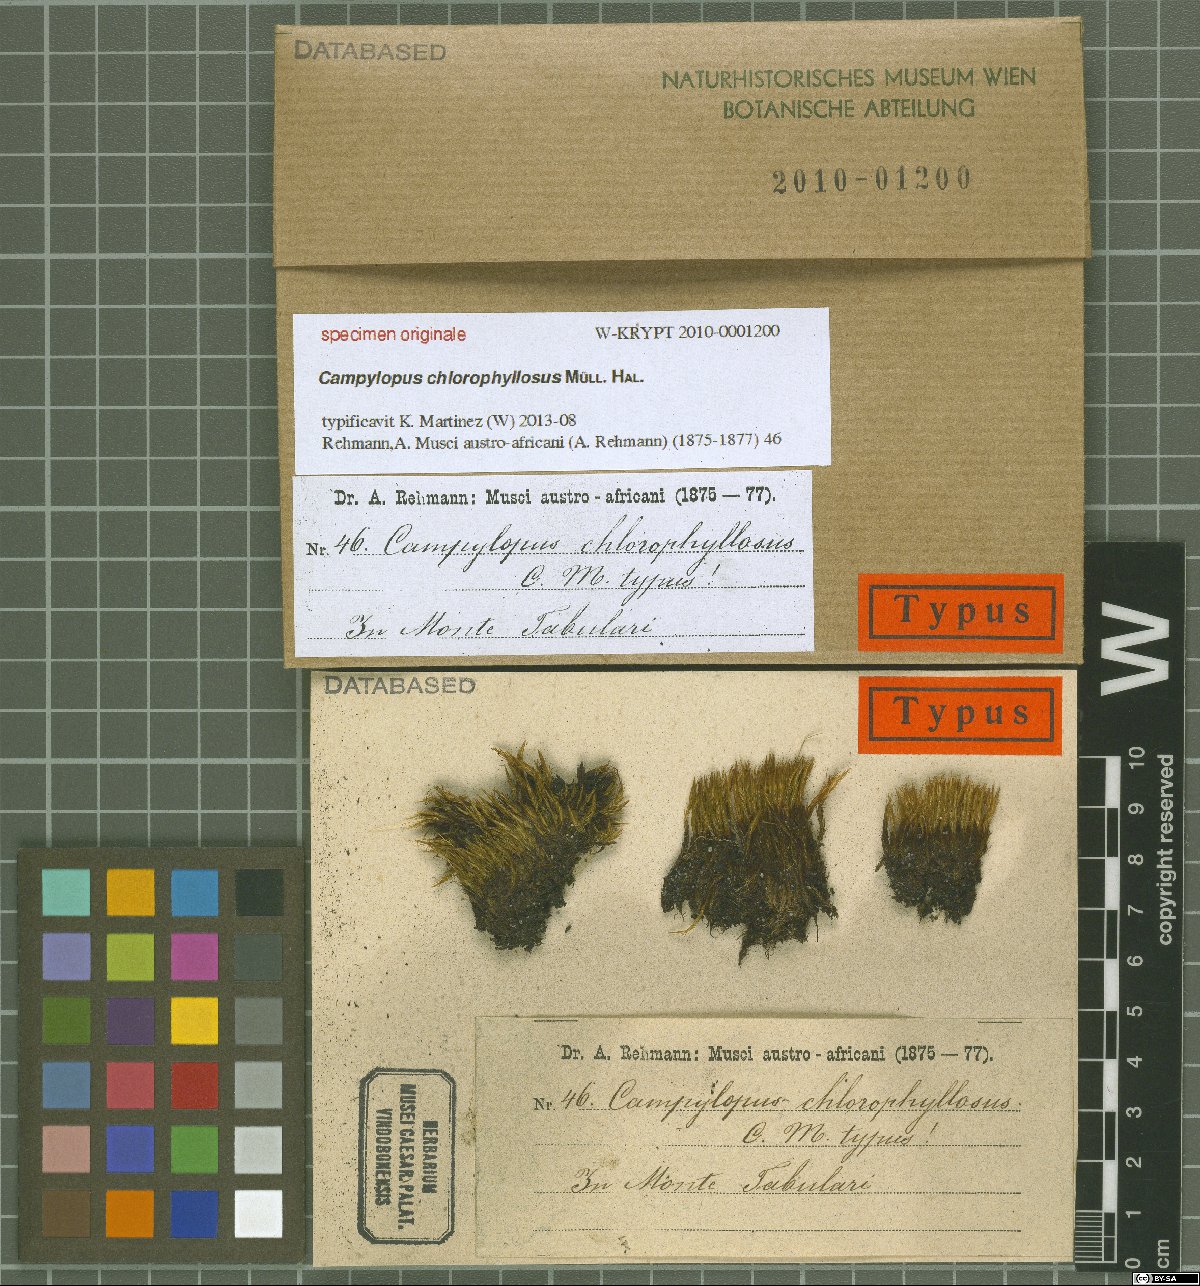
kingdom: Protozoa
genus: Campylopus
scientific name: Campylopus
